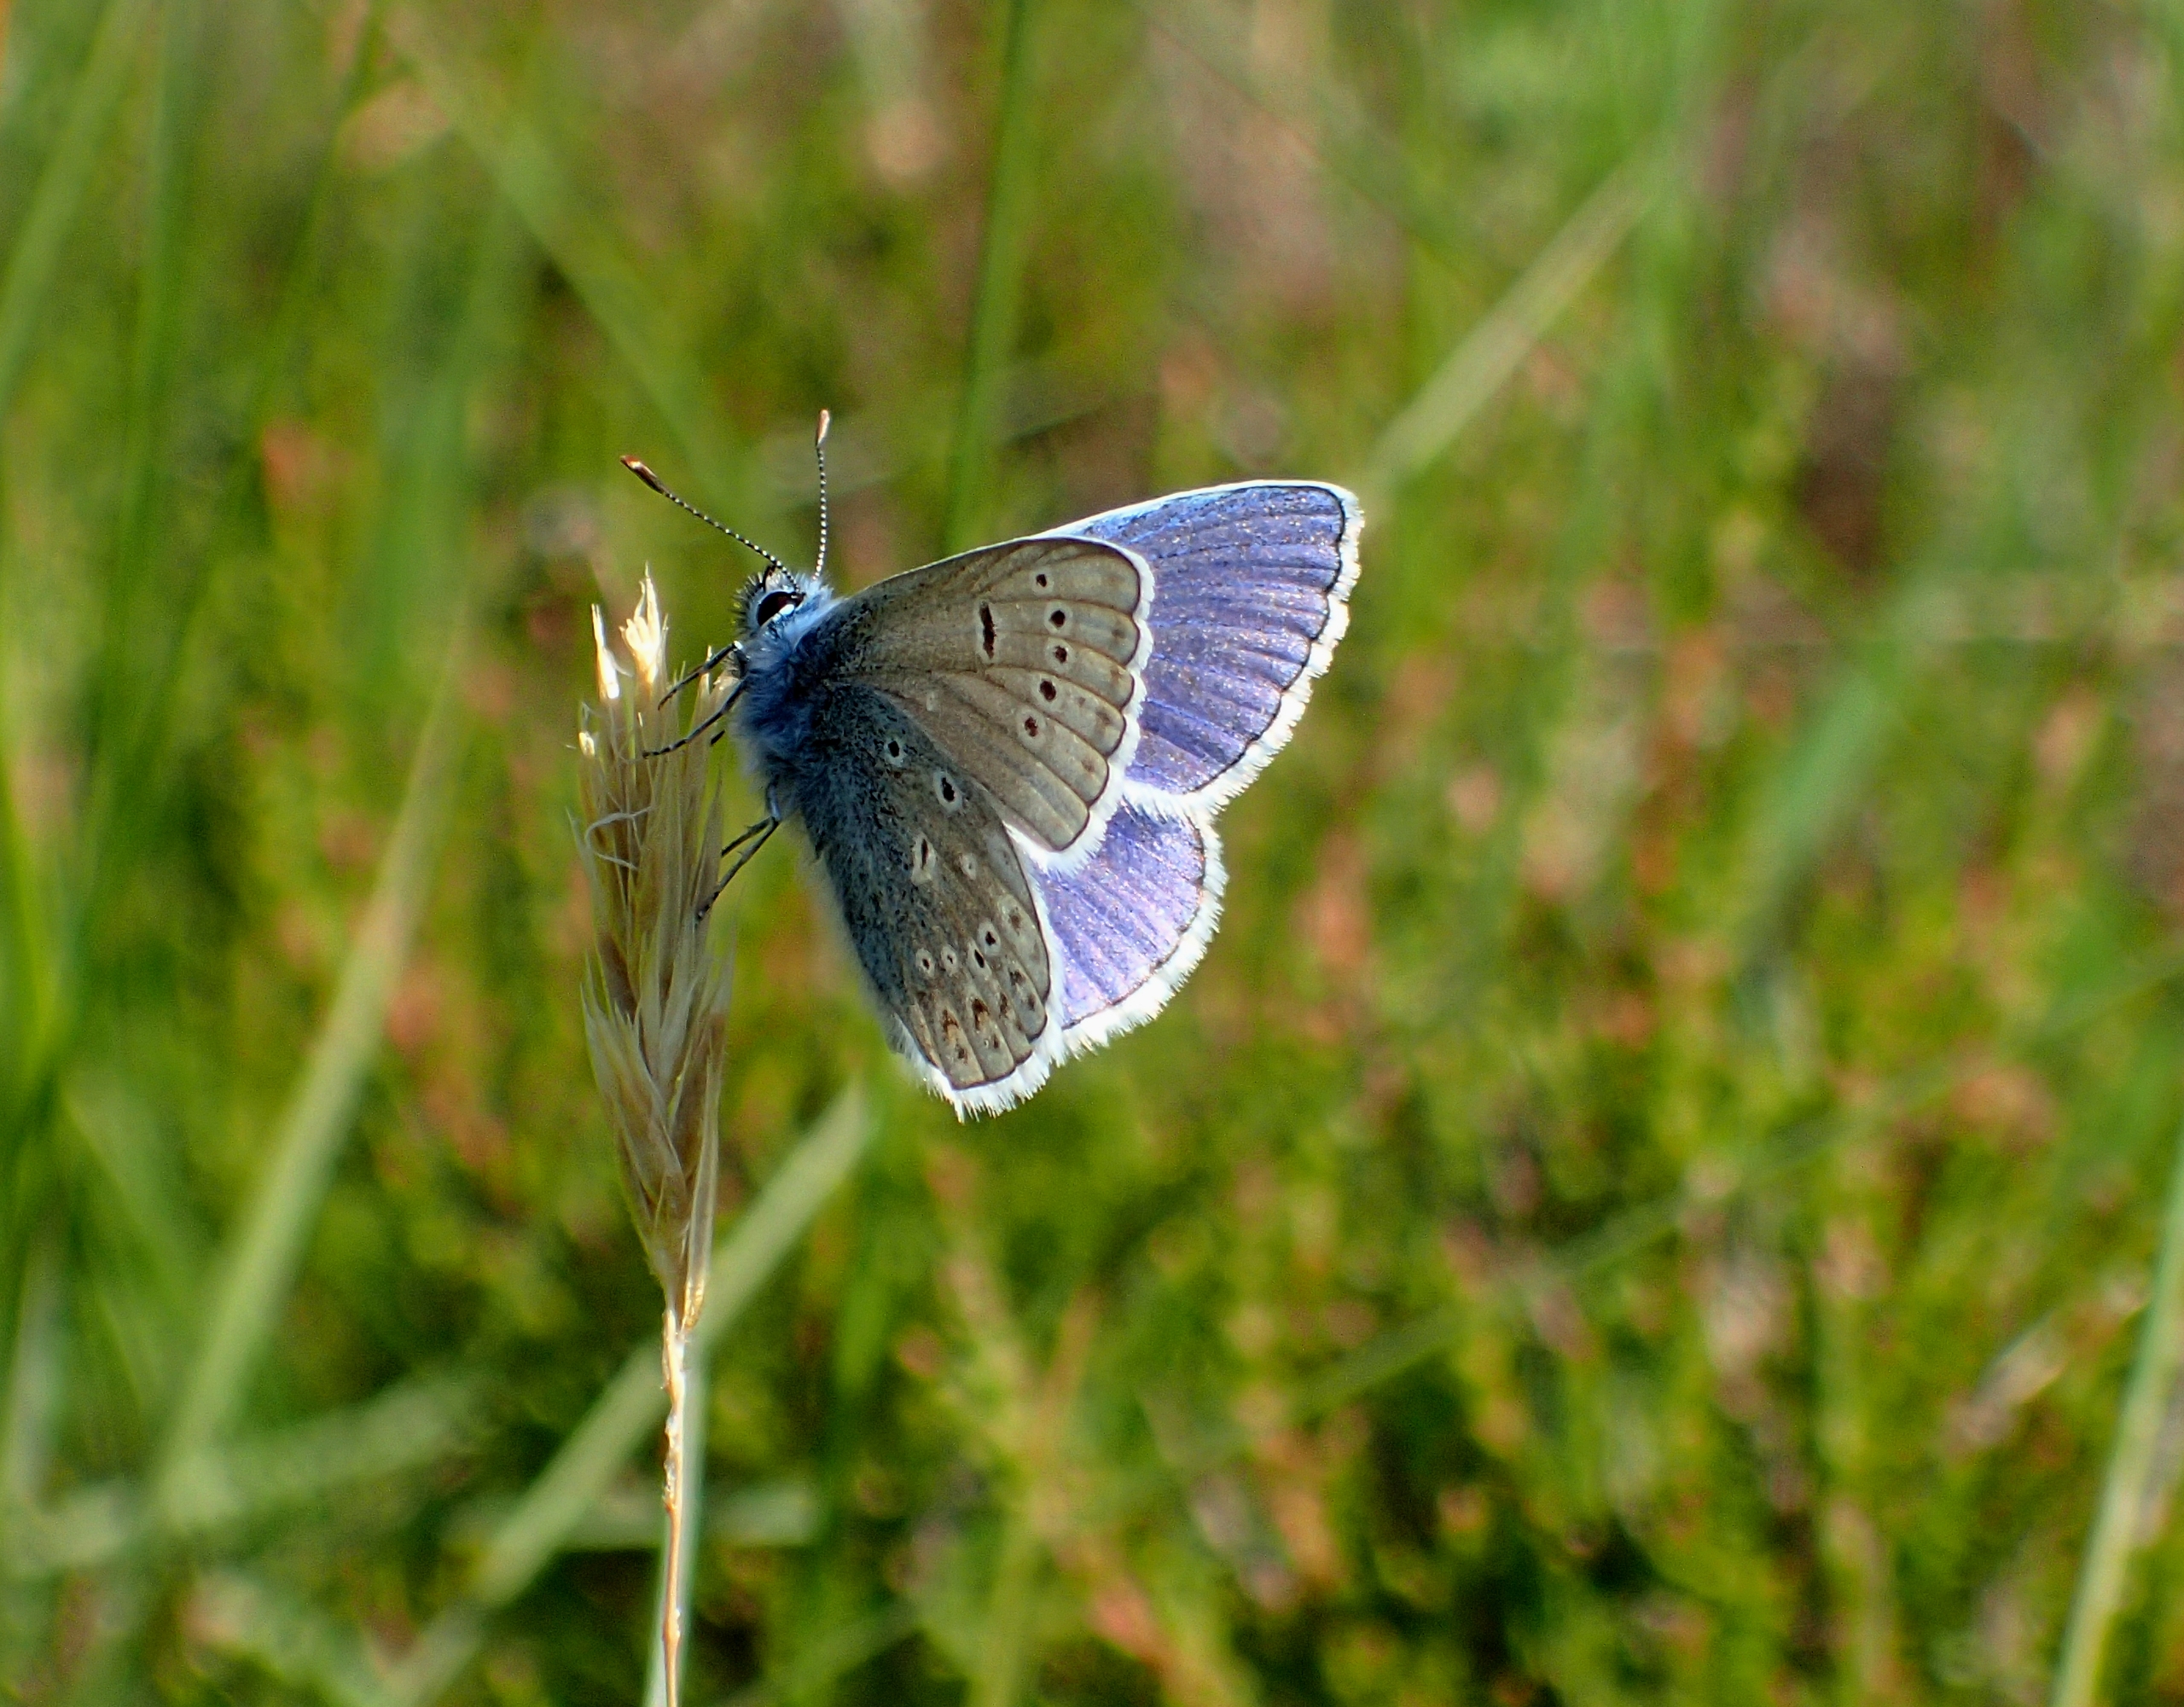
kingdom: Animalia
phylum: Arthropoda
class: Insecta
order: Lepidoptera
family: Lycaenidae
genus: Polyommatus
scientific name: Polyommatus icarus
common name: Almindelig blåfugl
